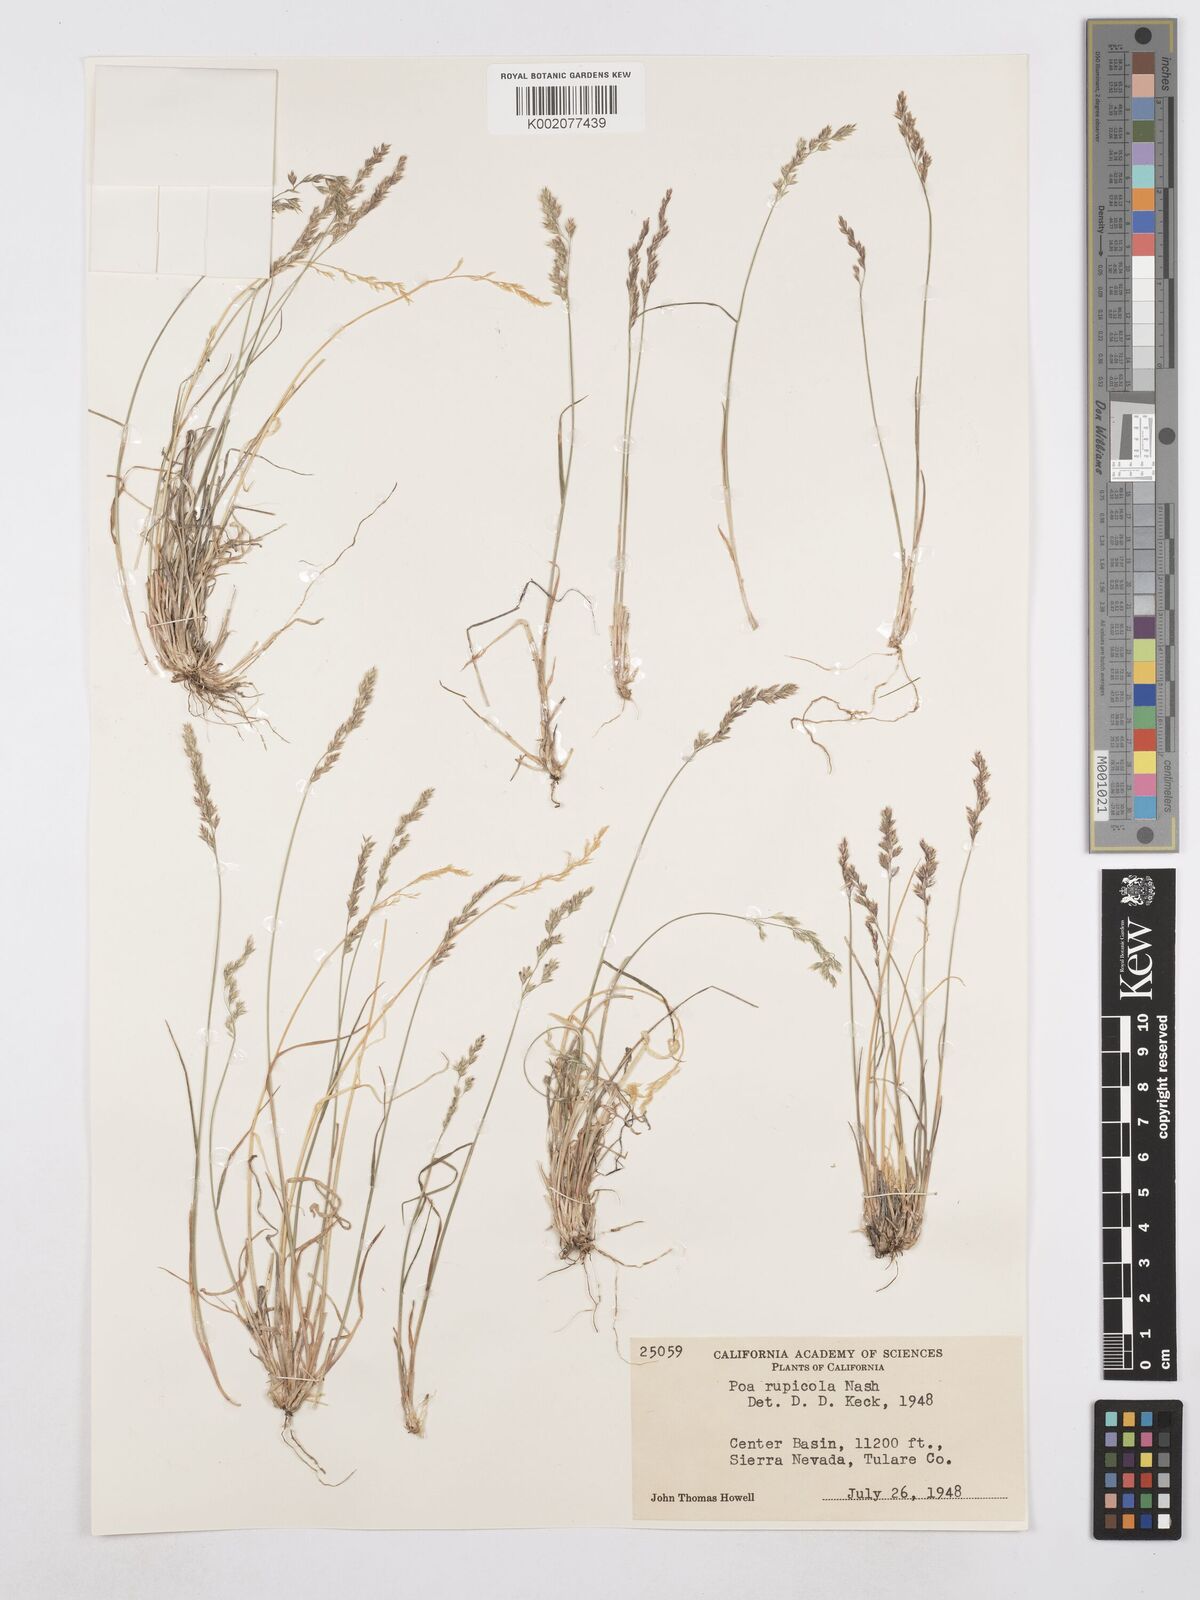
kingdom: Plantae
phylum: Tracheophyta
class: Liliopsida
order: Poales
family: Poaceae
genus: Poa
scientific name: Poa glauca
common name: Glaucous bluegrass
